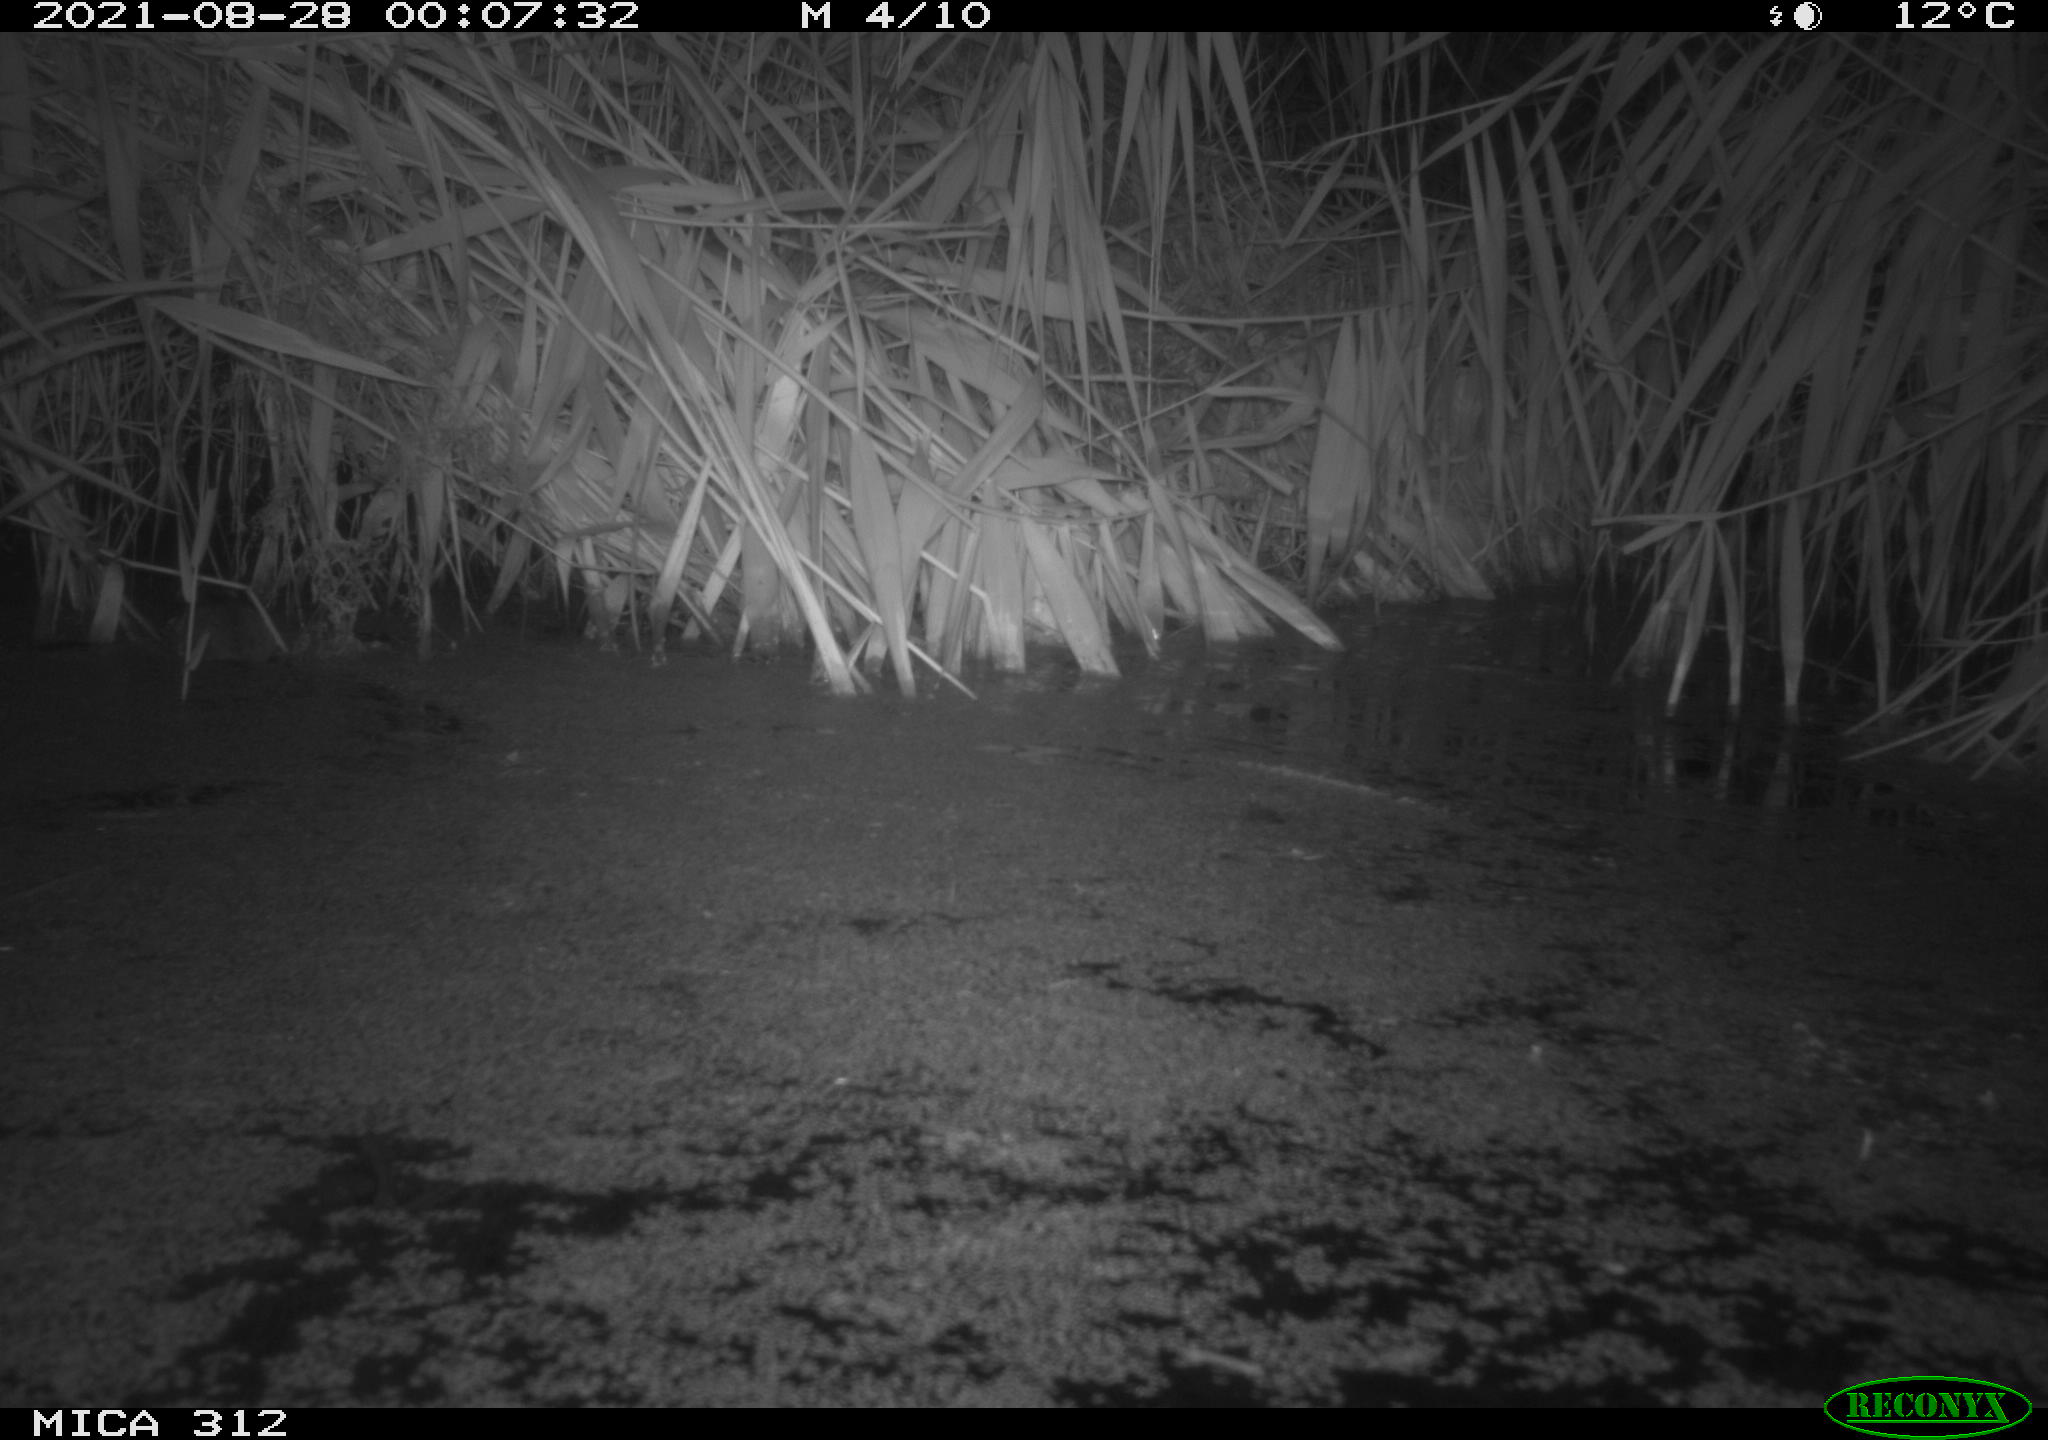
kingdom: Animalia
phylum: Chordata
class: Mammalia
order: Rodentia
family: Muridae
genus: Rattus
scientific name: Rattus norvegicus
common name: Brown rat
